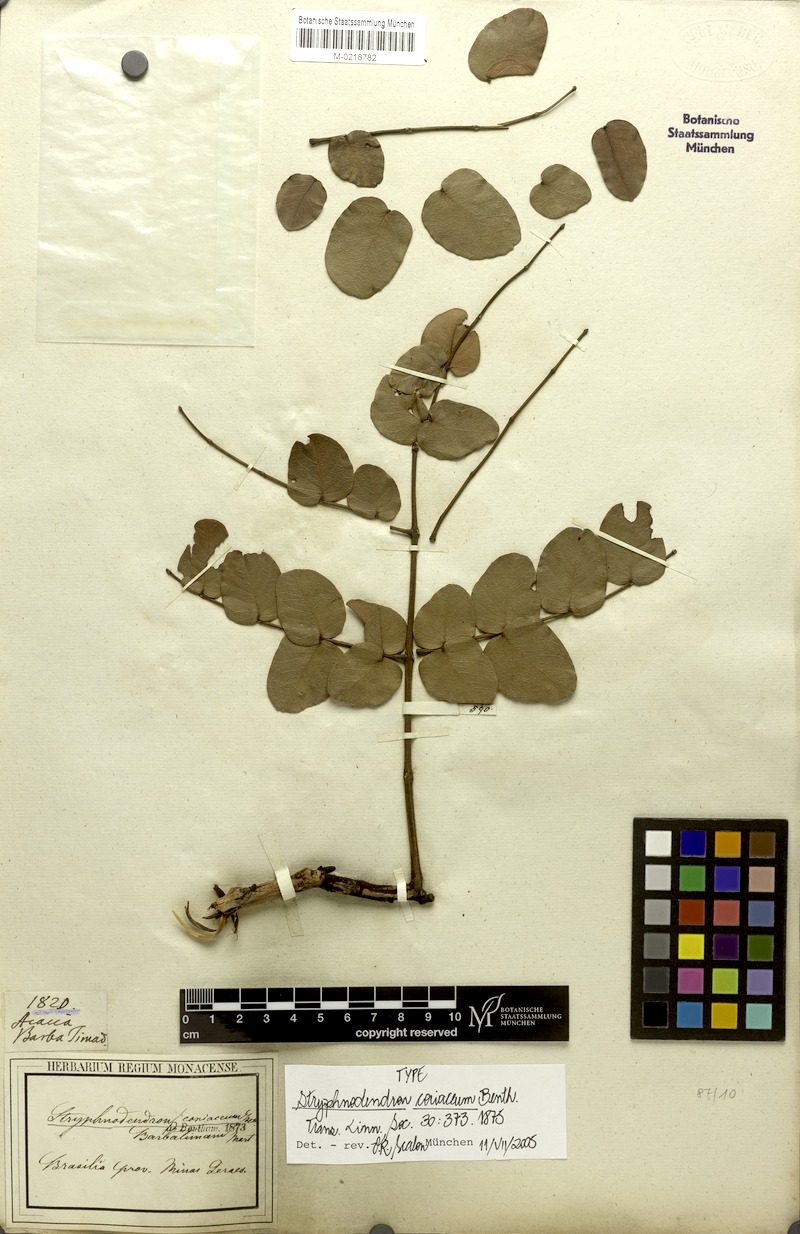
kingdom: Plantae
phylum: Tracheophyta
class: Magnoliopsida
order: Fabales
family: Fabaceae
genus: Stryphnodendron
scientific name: Stryphnodendron coriaceum
